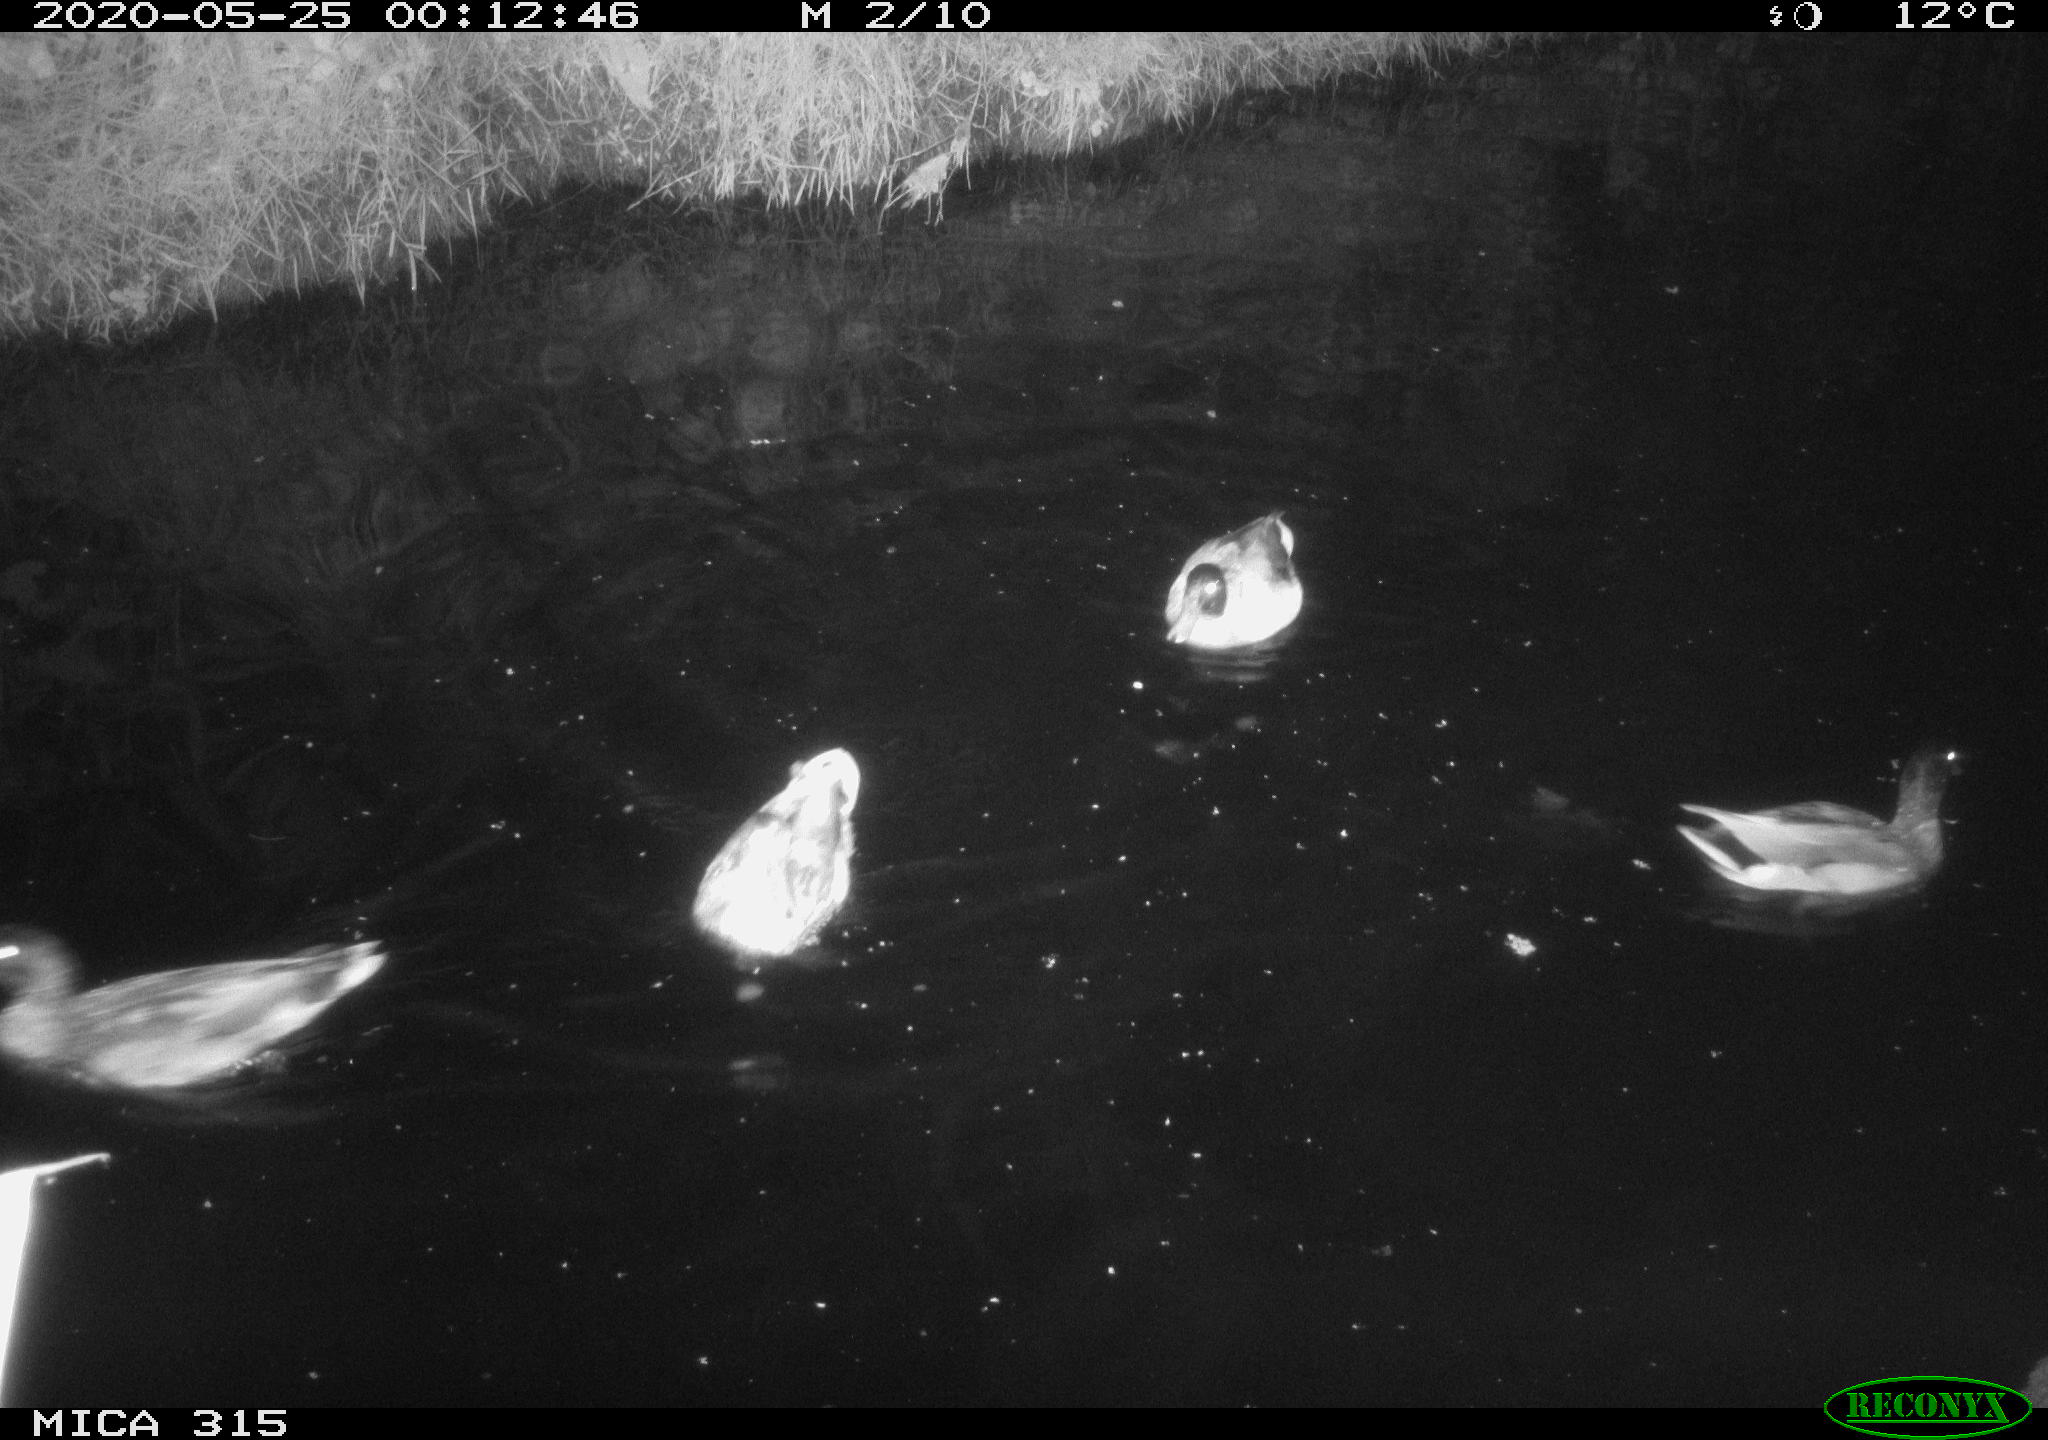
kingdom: Animalia
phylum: Chordata
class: Aves
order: Anseriformes
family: Anatidae
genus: Anas
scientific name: Anas platyrhynchos
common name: Mallard
